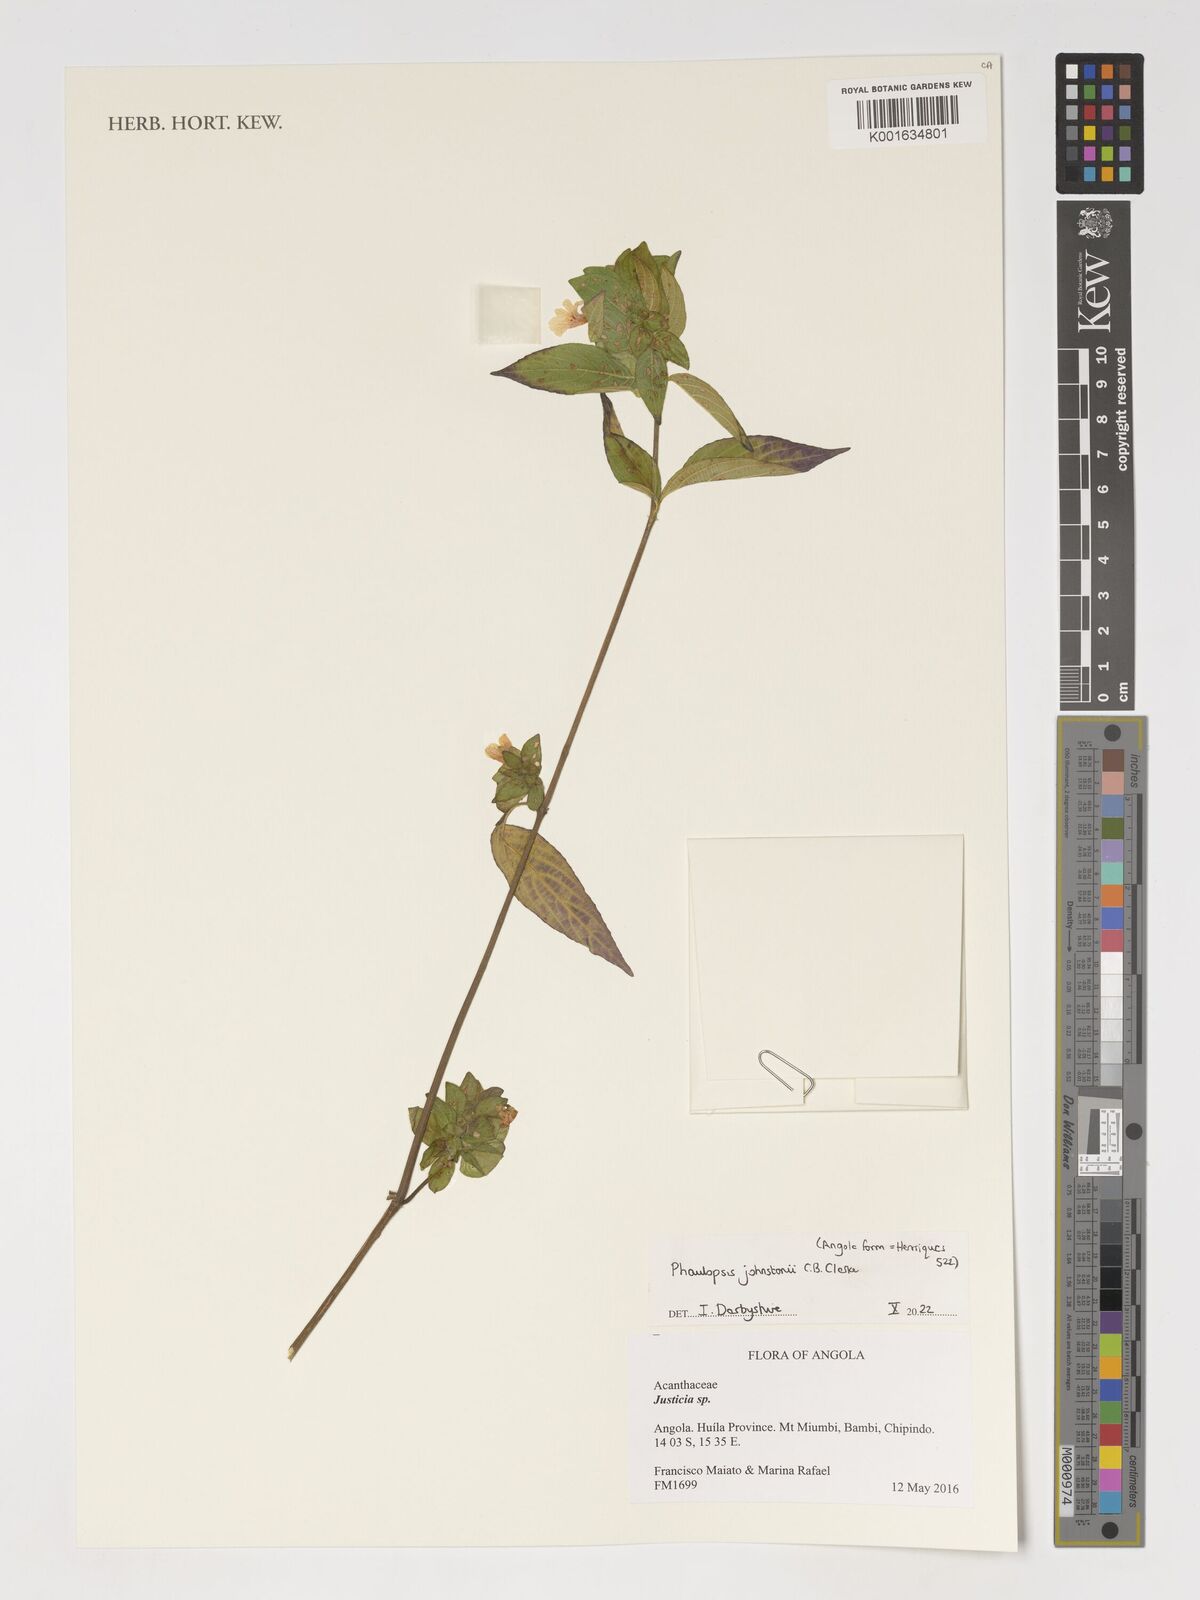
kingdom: Plantae
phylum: Tracheophyta
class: Magnoliopsida
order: Lamiales
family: Acanthaceae
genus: Phaulopsis
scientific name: Phaulopsis johnstonii
